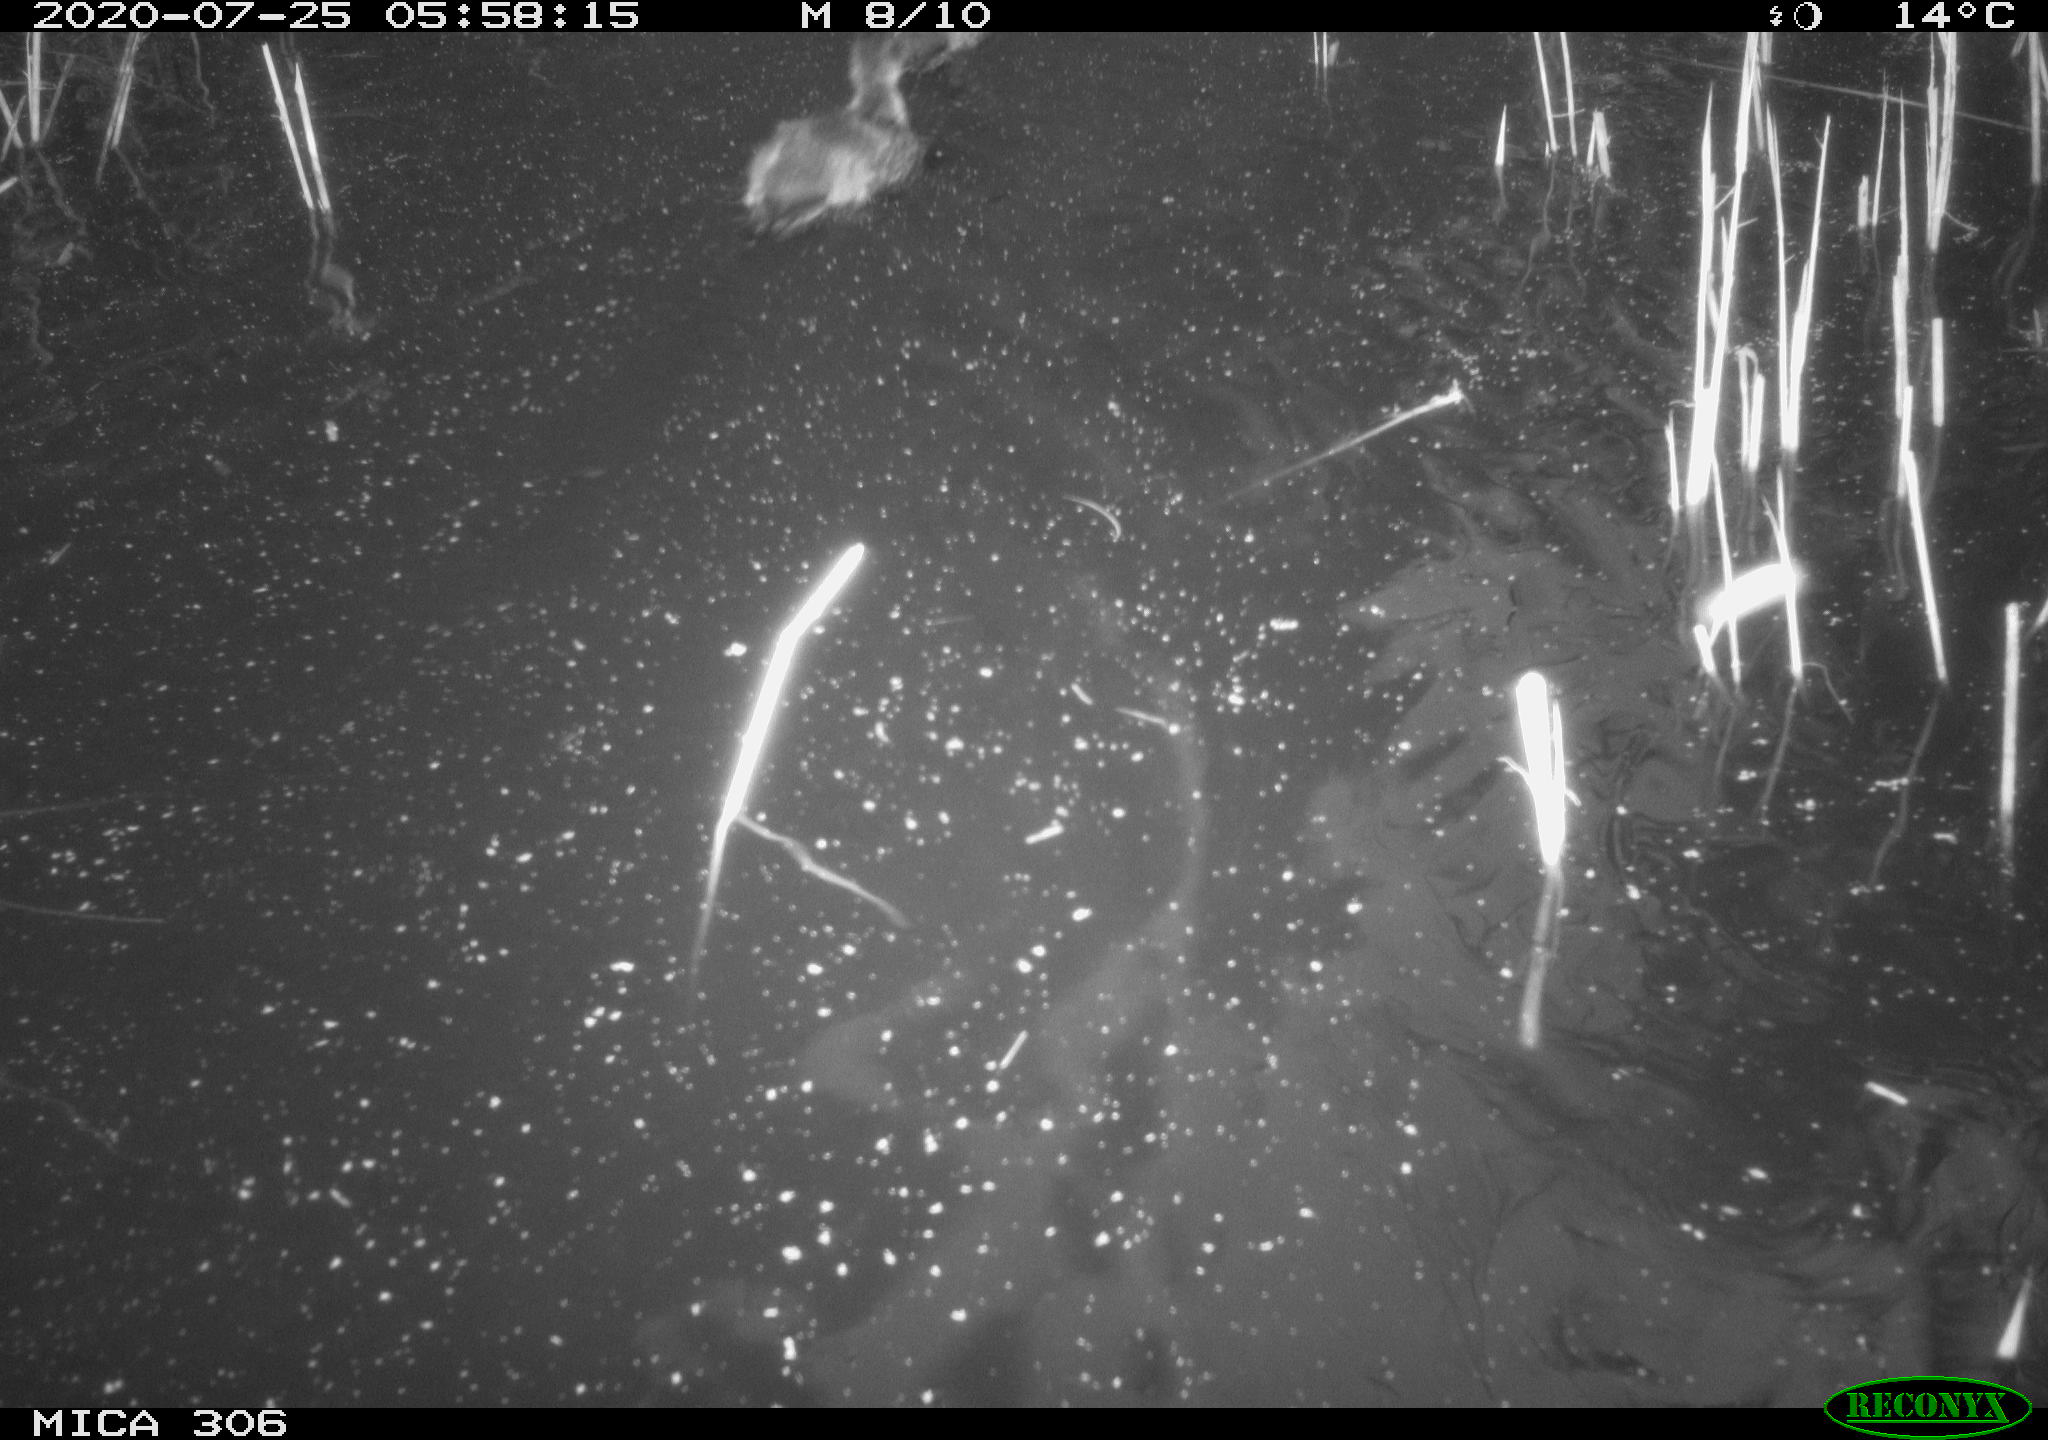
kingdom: Animalia
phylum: Chordata
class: Aves
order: Anseriformes
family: Anatidae
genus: Anas
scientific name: Anas platyrhynchos
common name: Mallard
